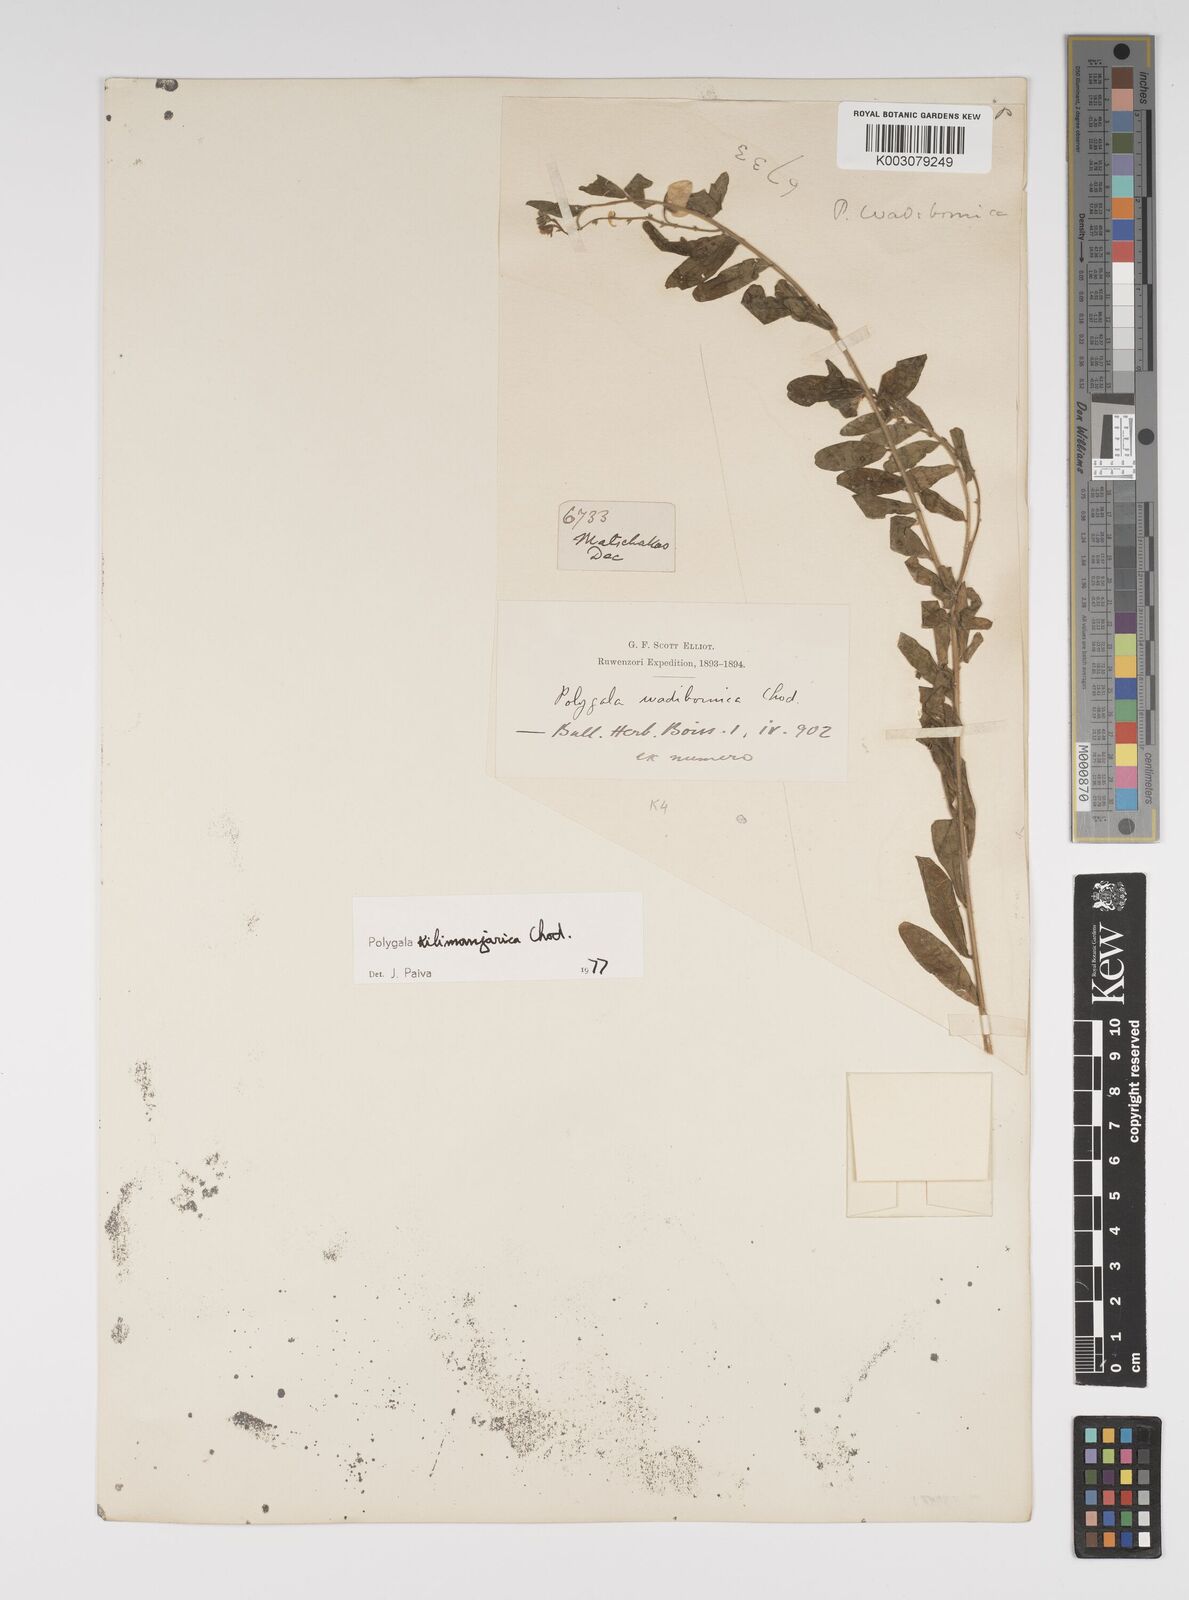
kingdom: Plantae
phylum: Tracheophyta
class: Magnoliopsida
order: Fabales
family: Polygalaceae
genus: Polygala
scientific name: Polygala kilimandjarica
